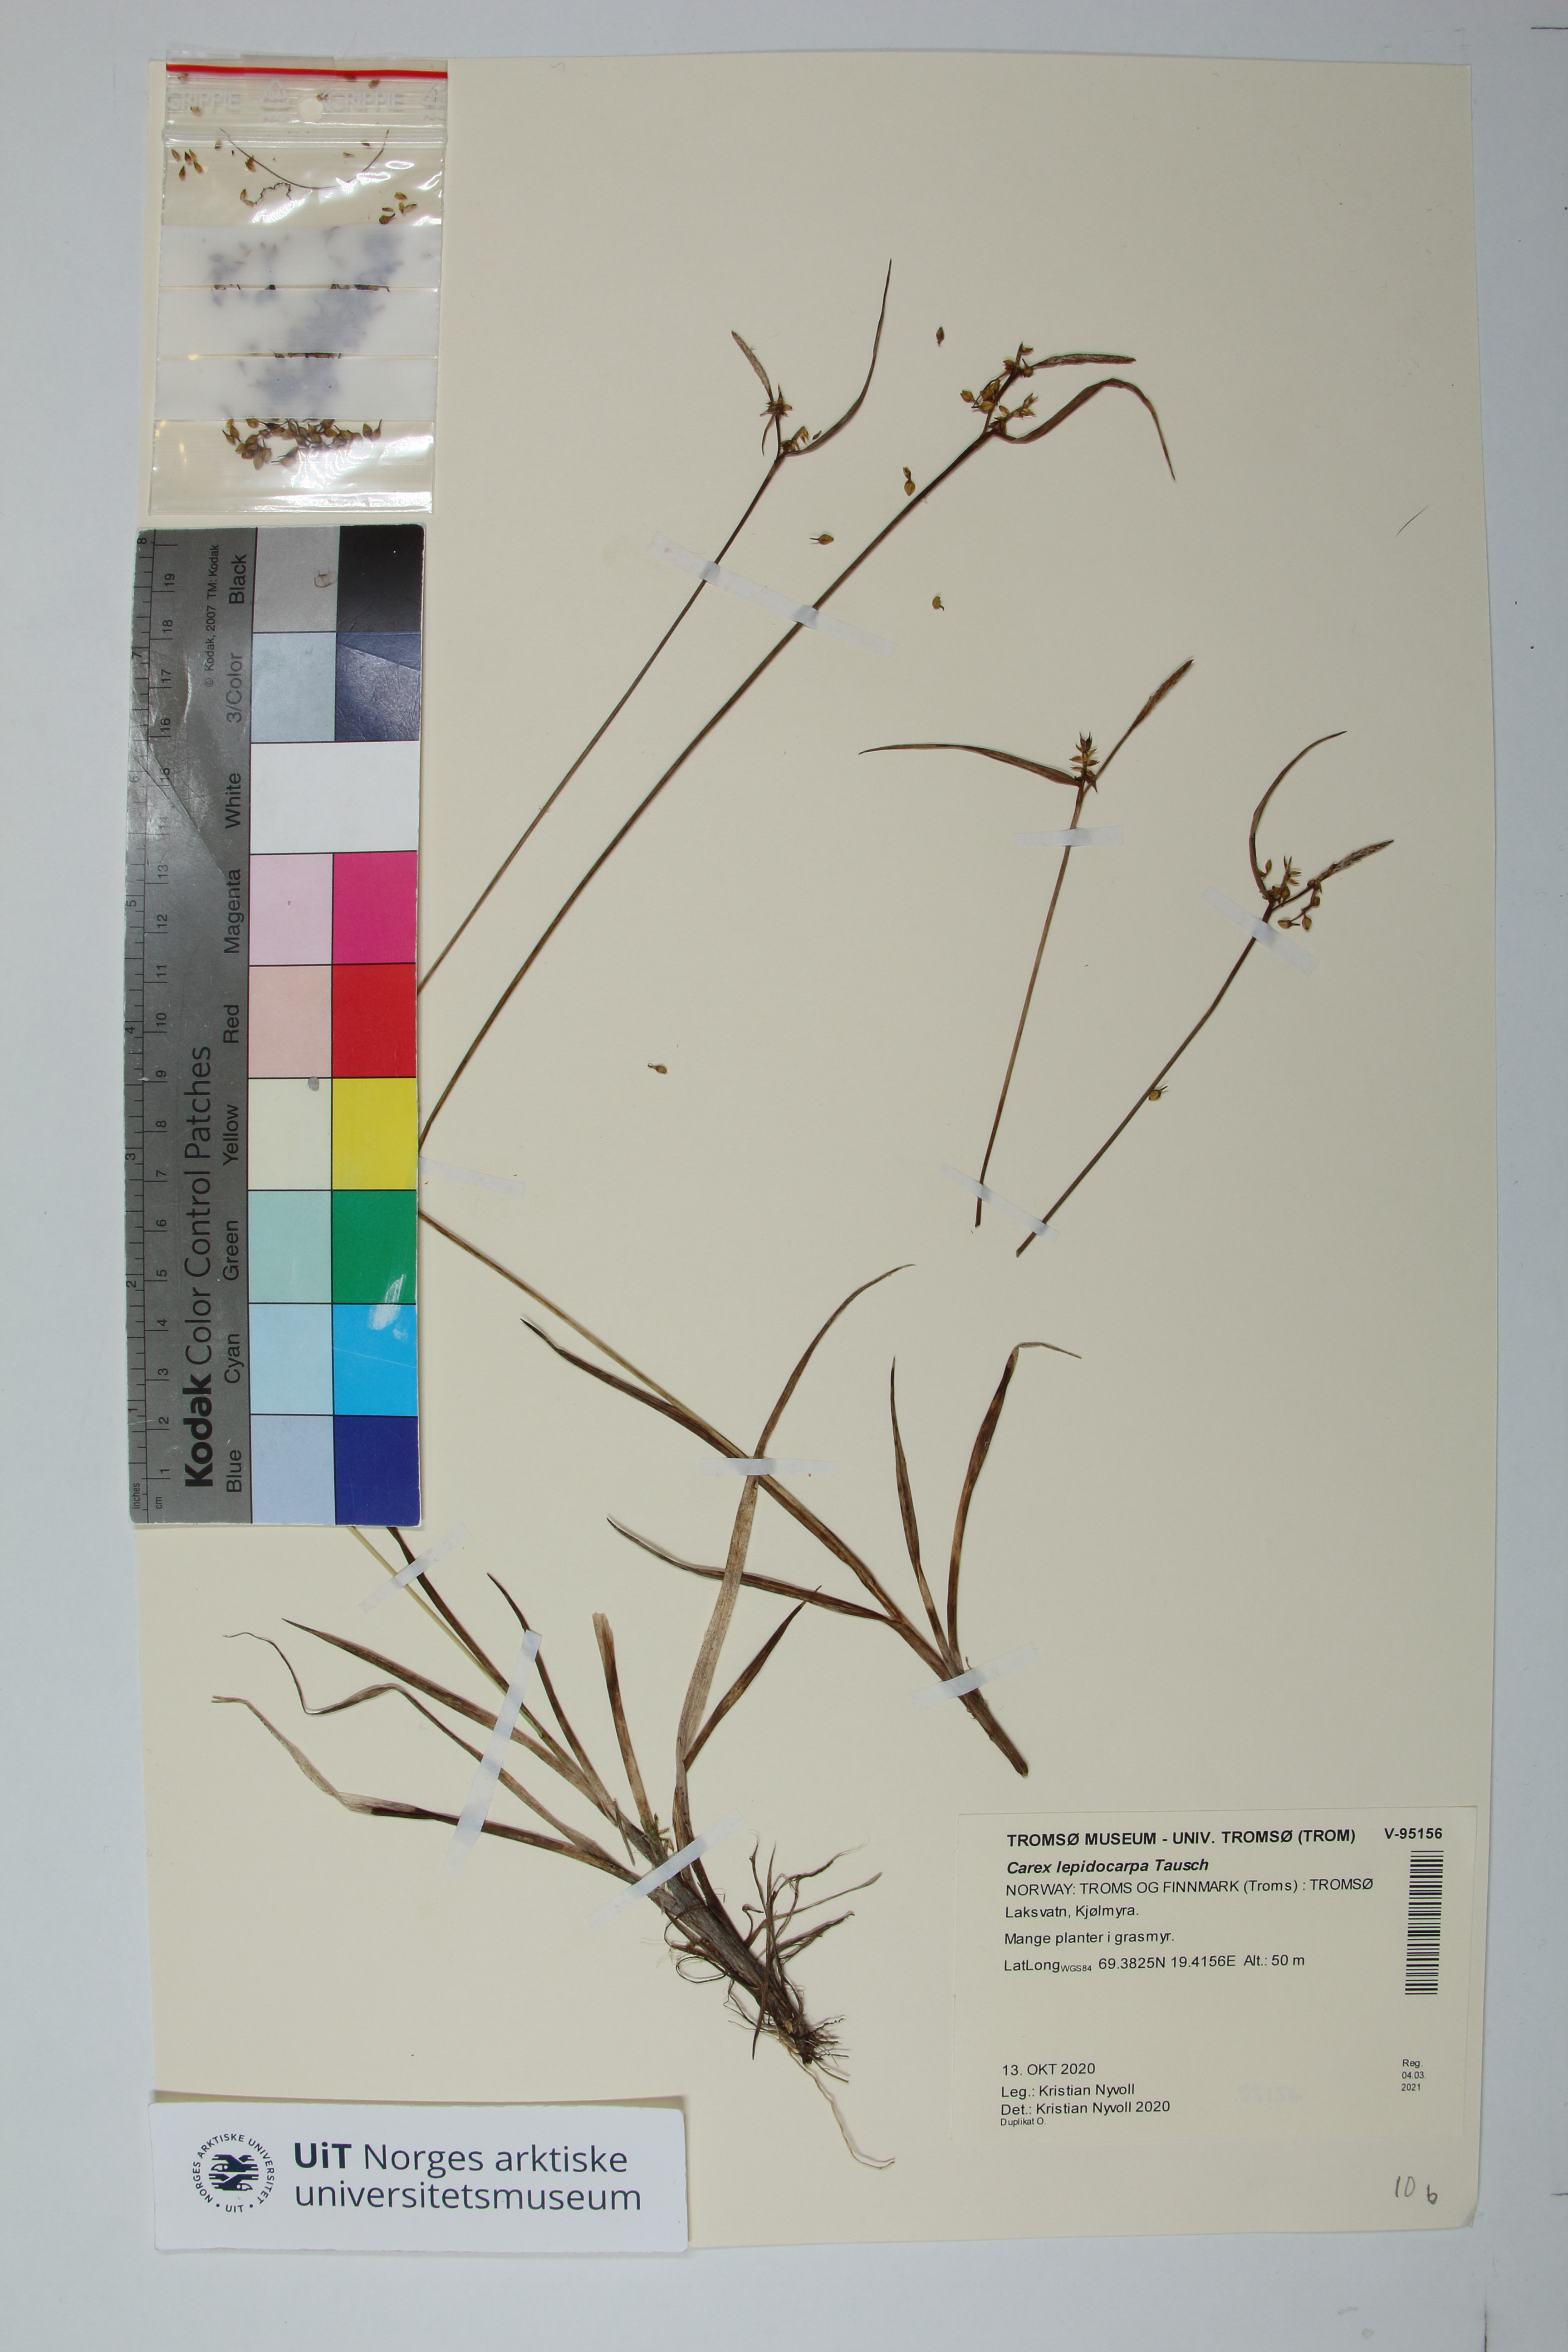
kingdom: Plantae
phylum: Tracheophyta
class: Liliopsida
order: Poales
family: Cyperaceae
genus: Carex
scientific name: Carex lepidocarpa
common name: Long-stalked yellow-sedge
